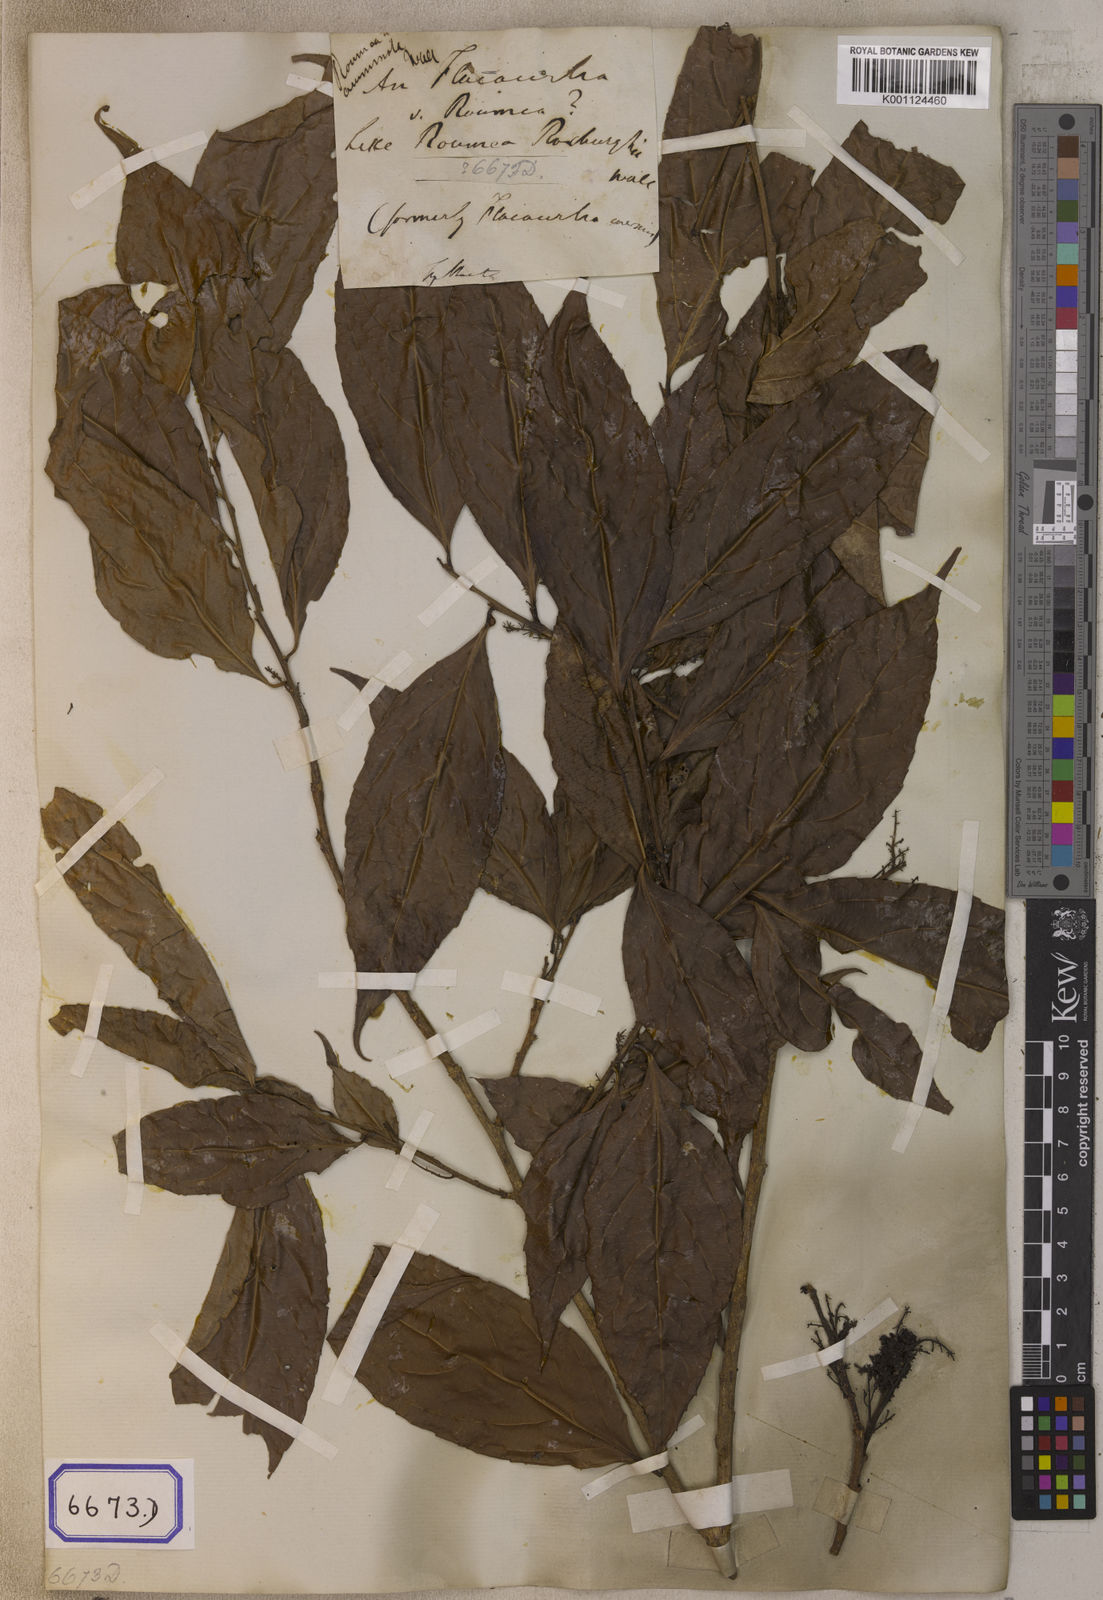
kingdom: Plantae
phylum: Tracheophyta
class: Magnoliopsida
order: Malpighiales
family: Salicaceae
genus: Flacourtia
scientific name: Flacourtia
